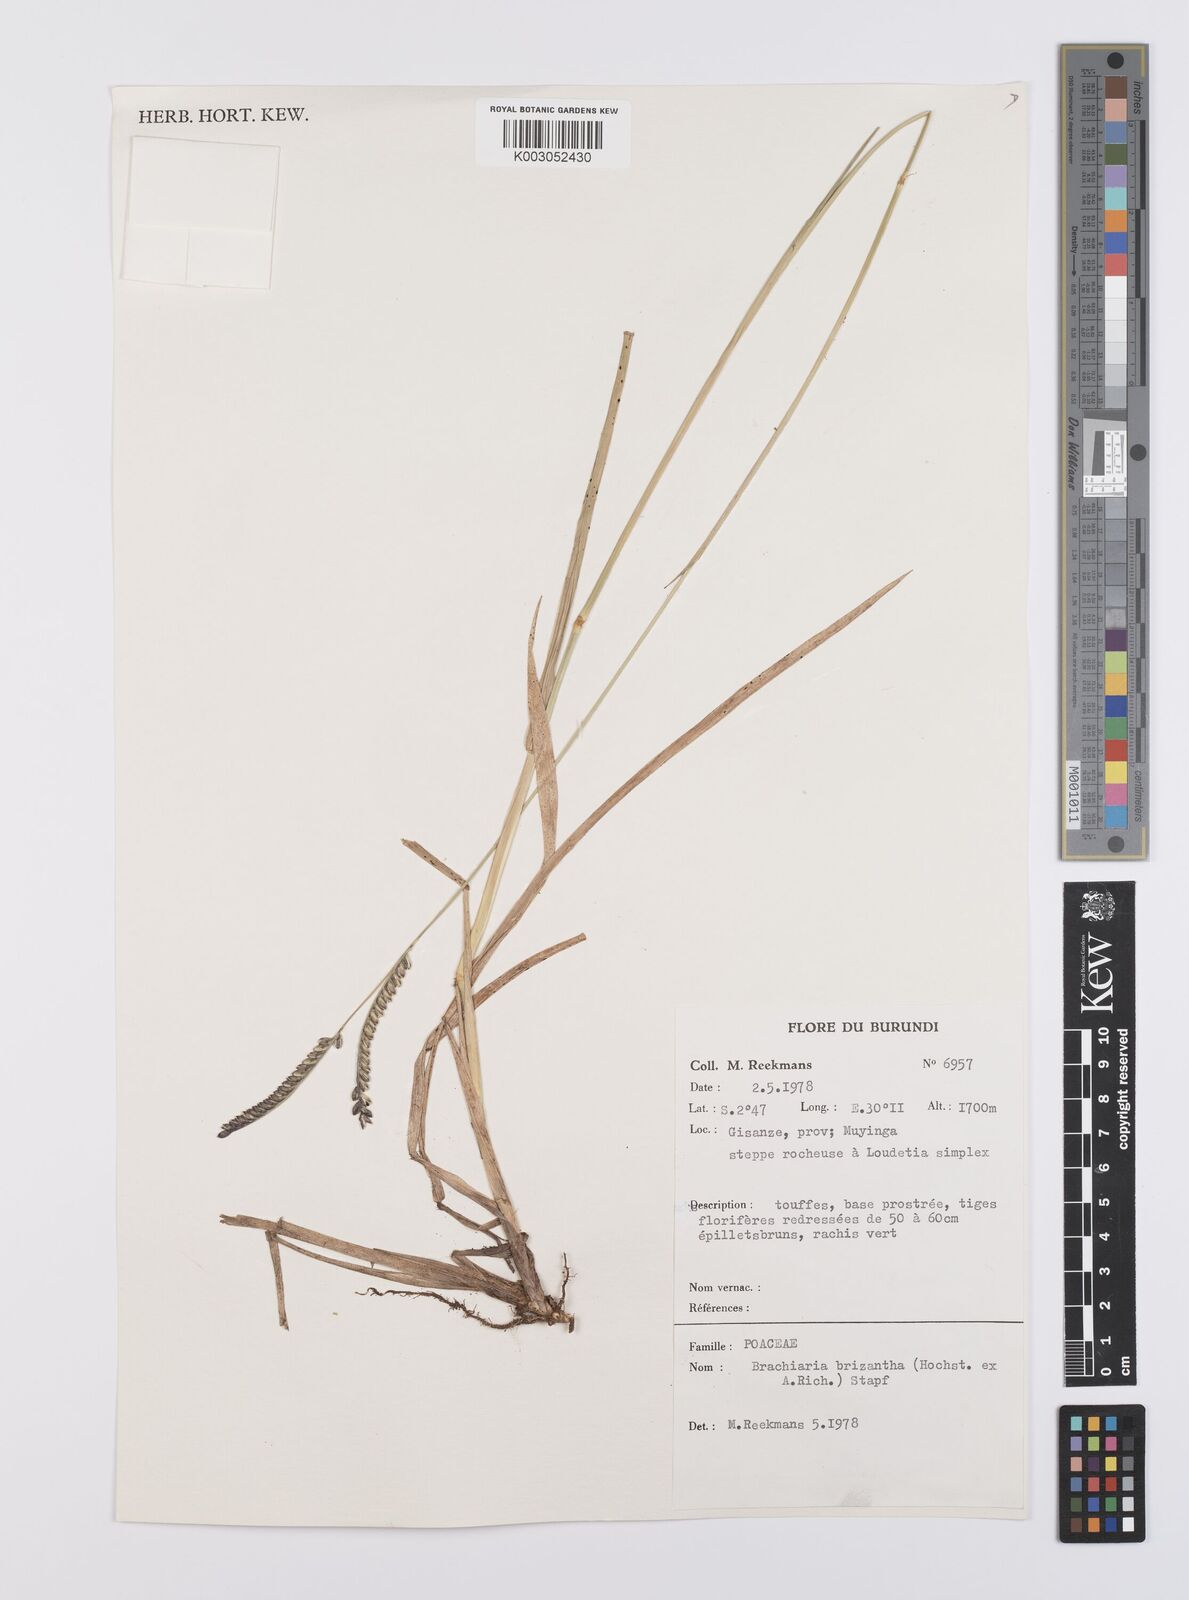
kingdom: Plantae
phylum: Tracheophyta
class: Liliopsida
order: Poales
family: Poaceae
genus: Urochloa
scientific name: Urochloa brizantha
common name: Palisade signalgrass
